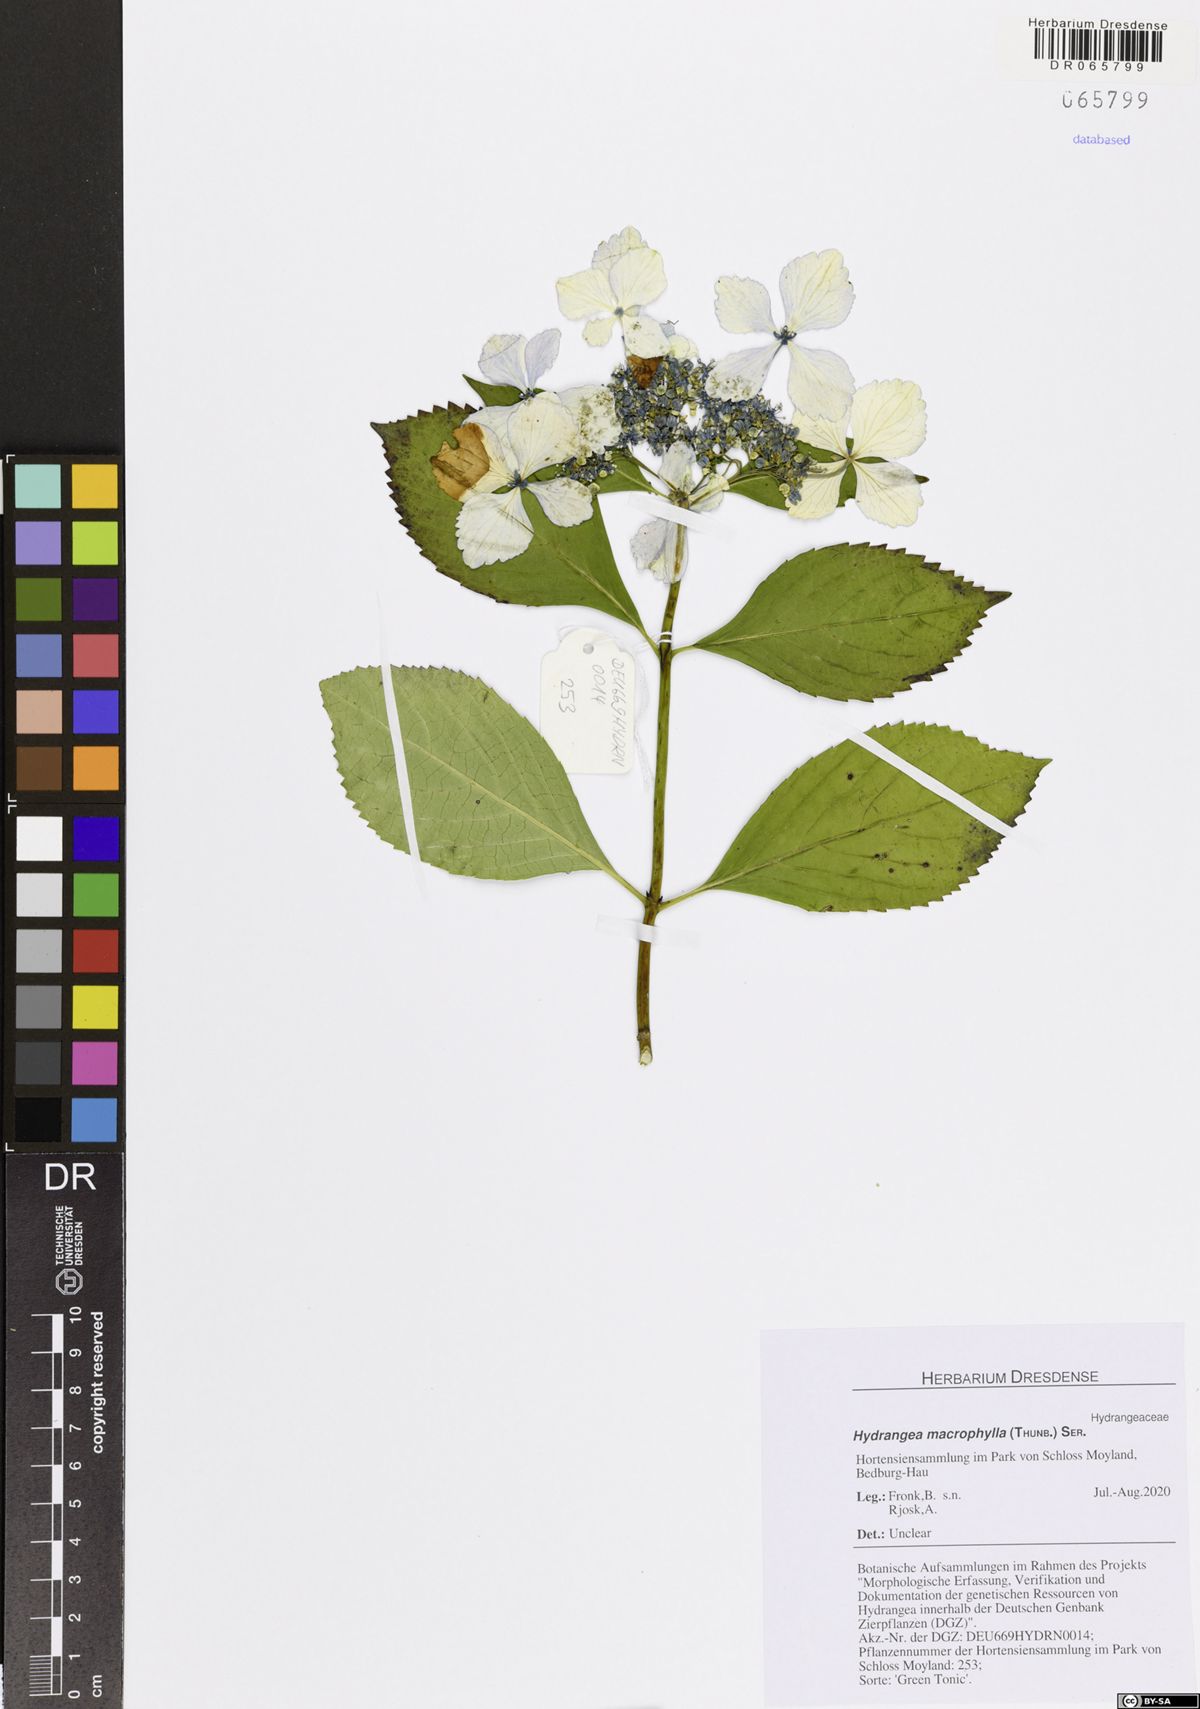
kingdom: Plantae
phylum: Tracheophyta
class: Magnoliopsida
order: Cornales
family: Hydrangeaceae
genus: Hydrangea
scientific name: Hydrangea macrophylla
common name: Hydrangea
